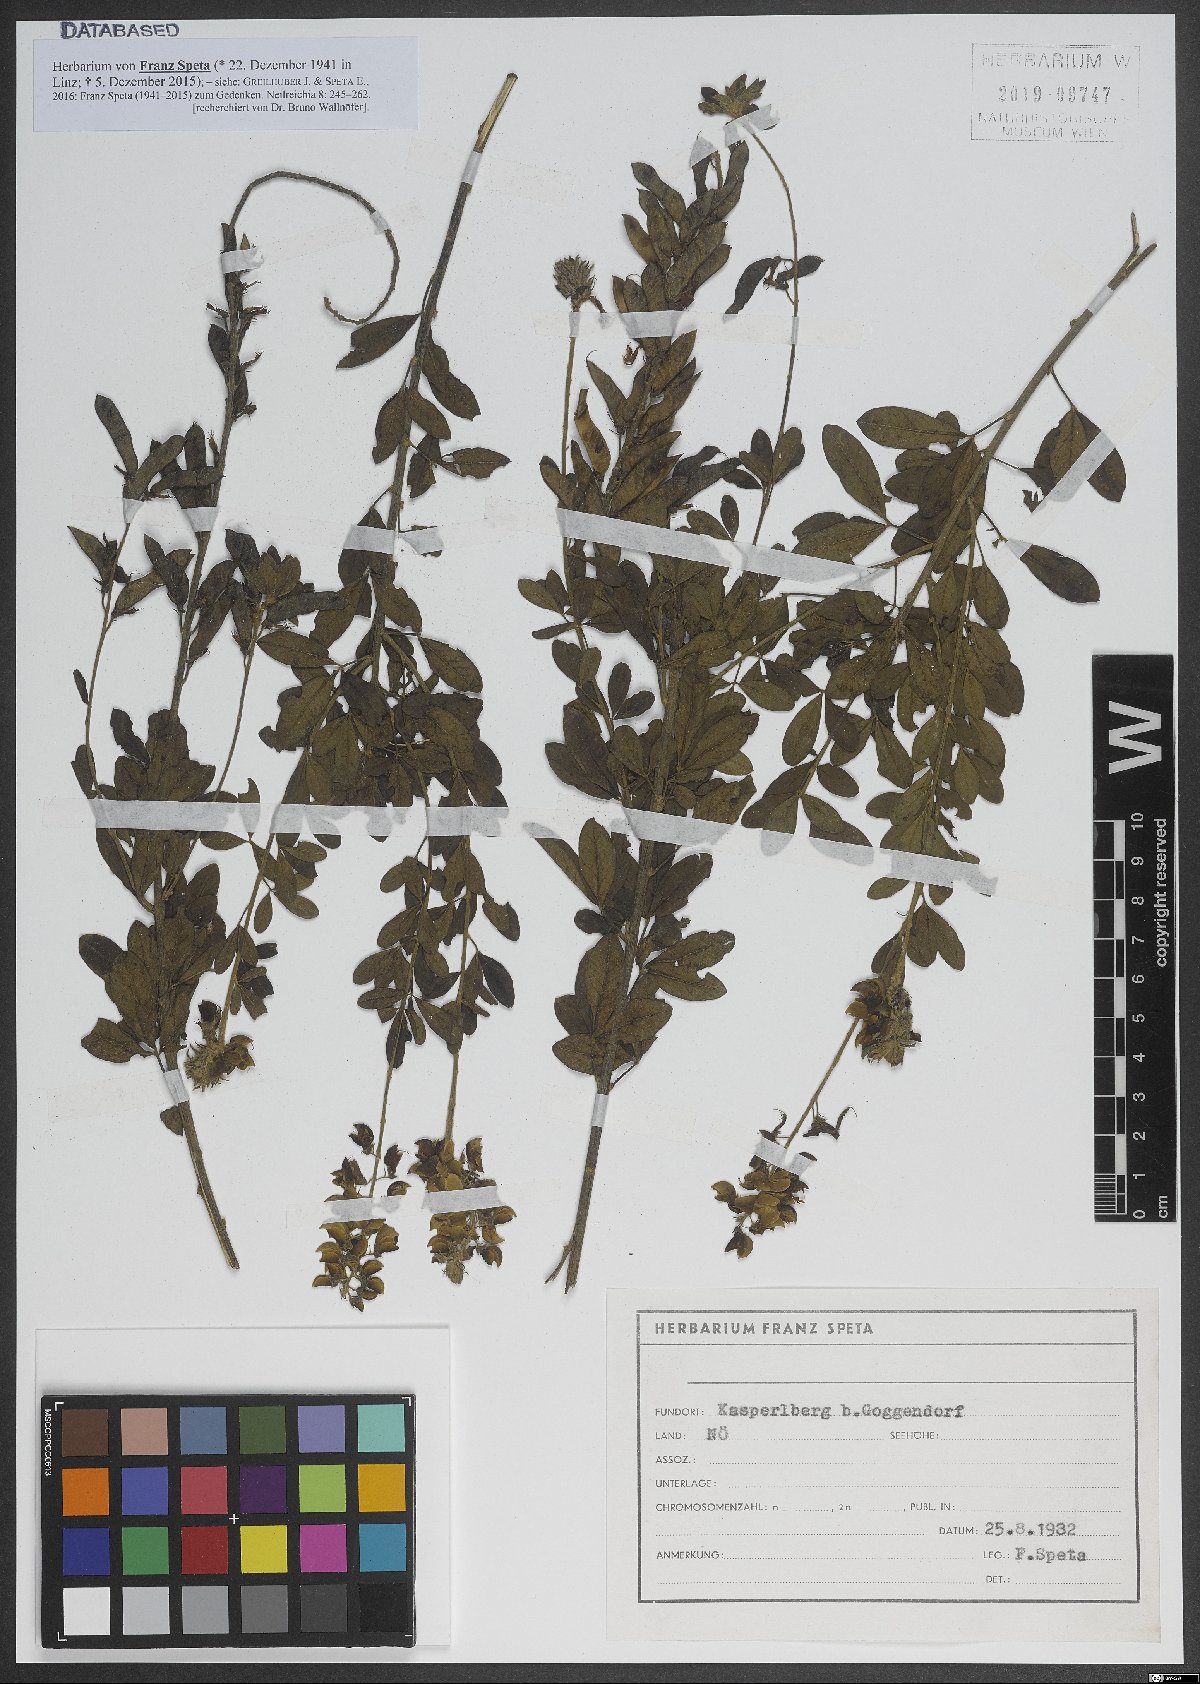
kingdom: Plantae
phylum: Tracheophyta
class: Magnoliopsida
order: Fabales
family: Fabaceae
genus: Cytisus
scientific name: Cytisus nigricans
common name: Black broom
